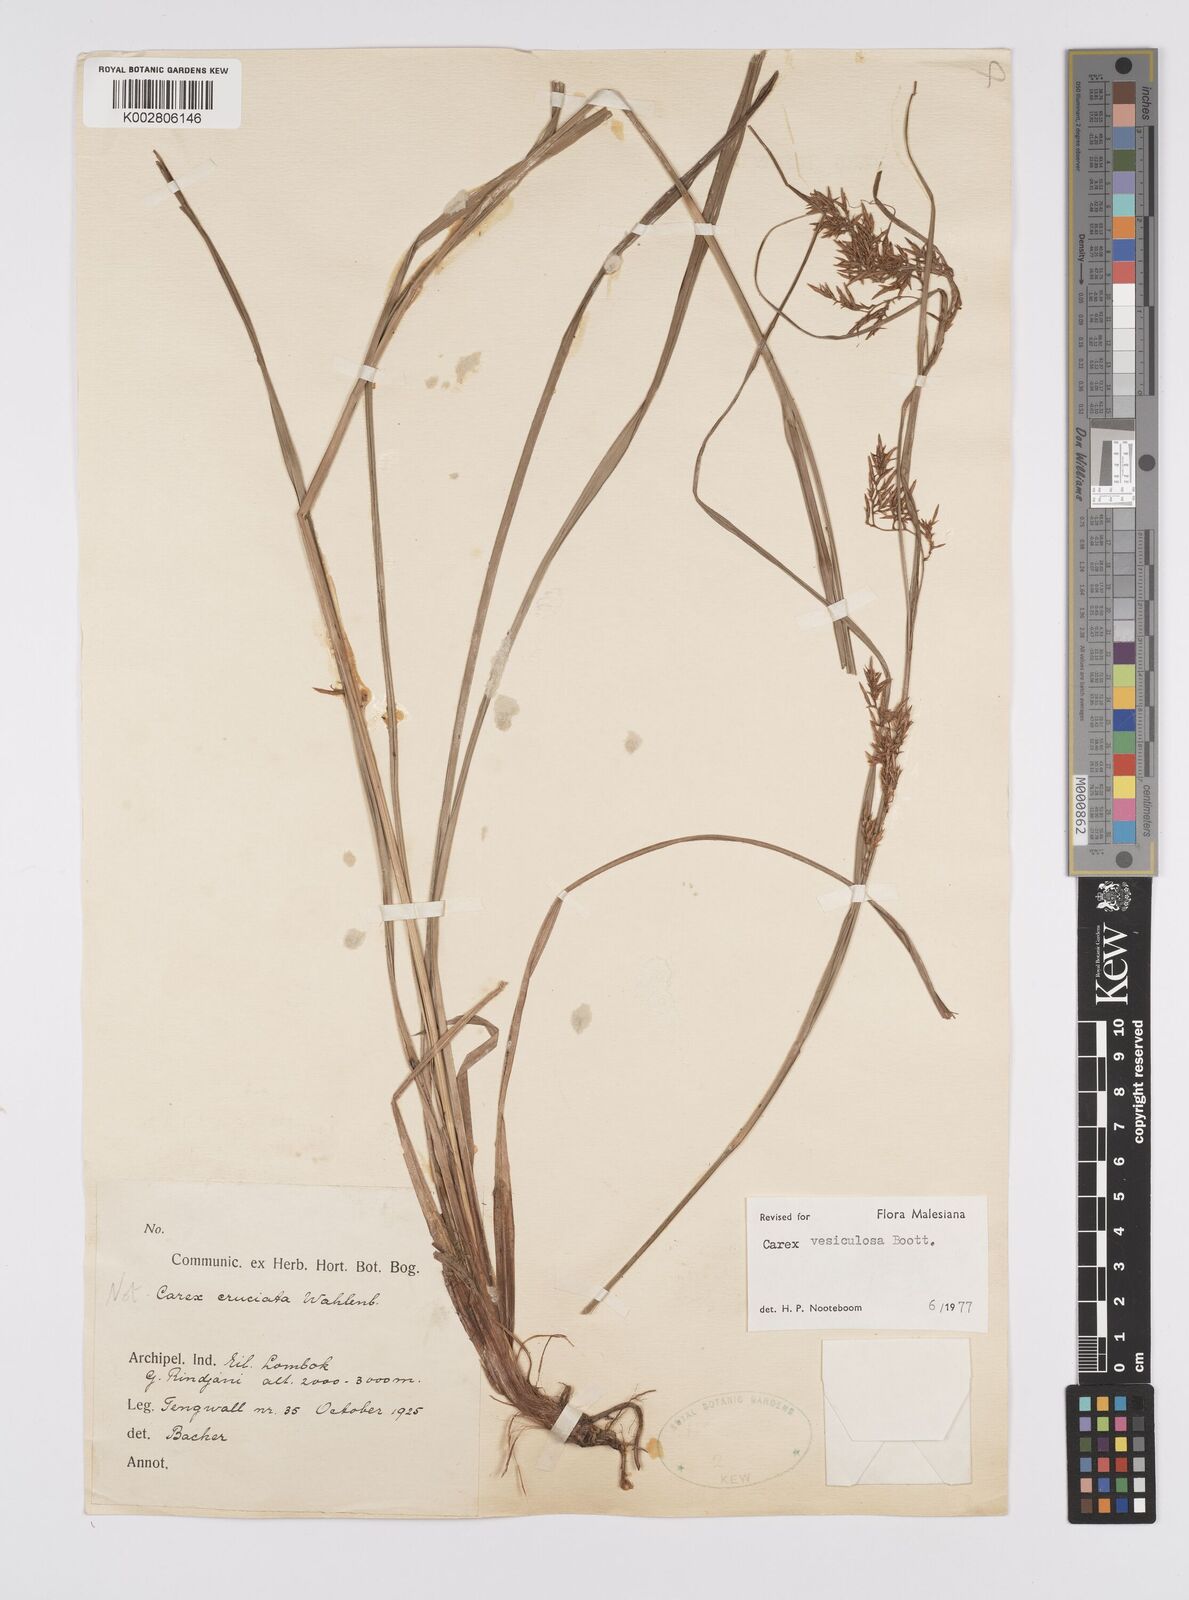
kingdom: Plantae
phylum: Tracheophyta
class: Liliopsida
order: Poales
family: Cyperaceae
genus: Carex
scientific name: Carex vesiculosa
